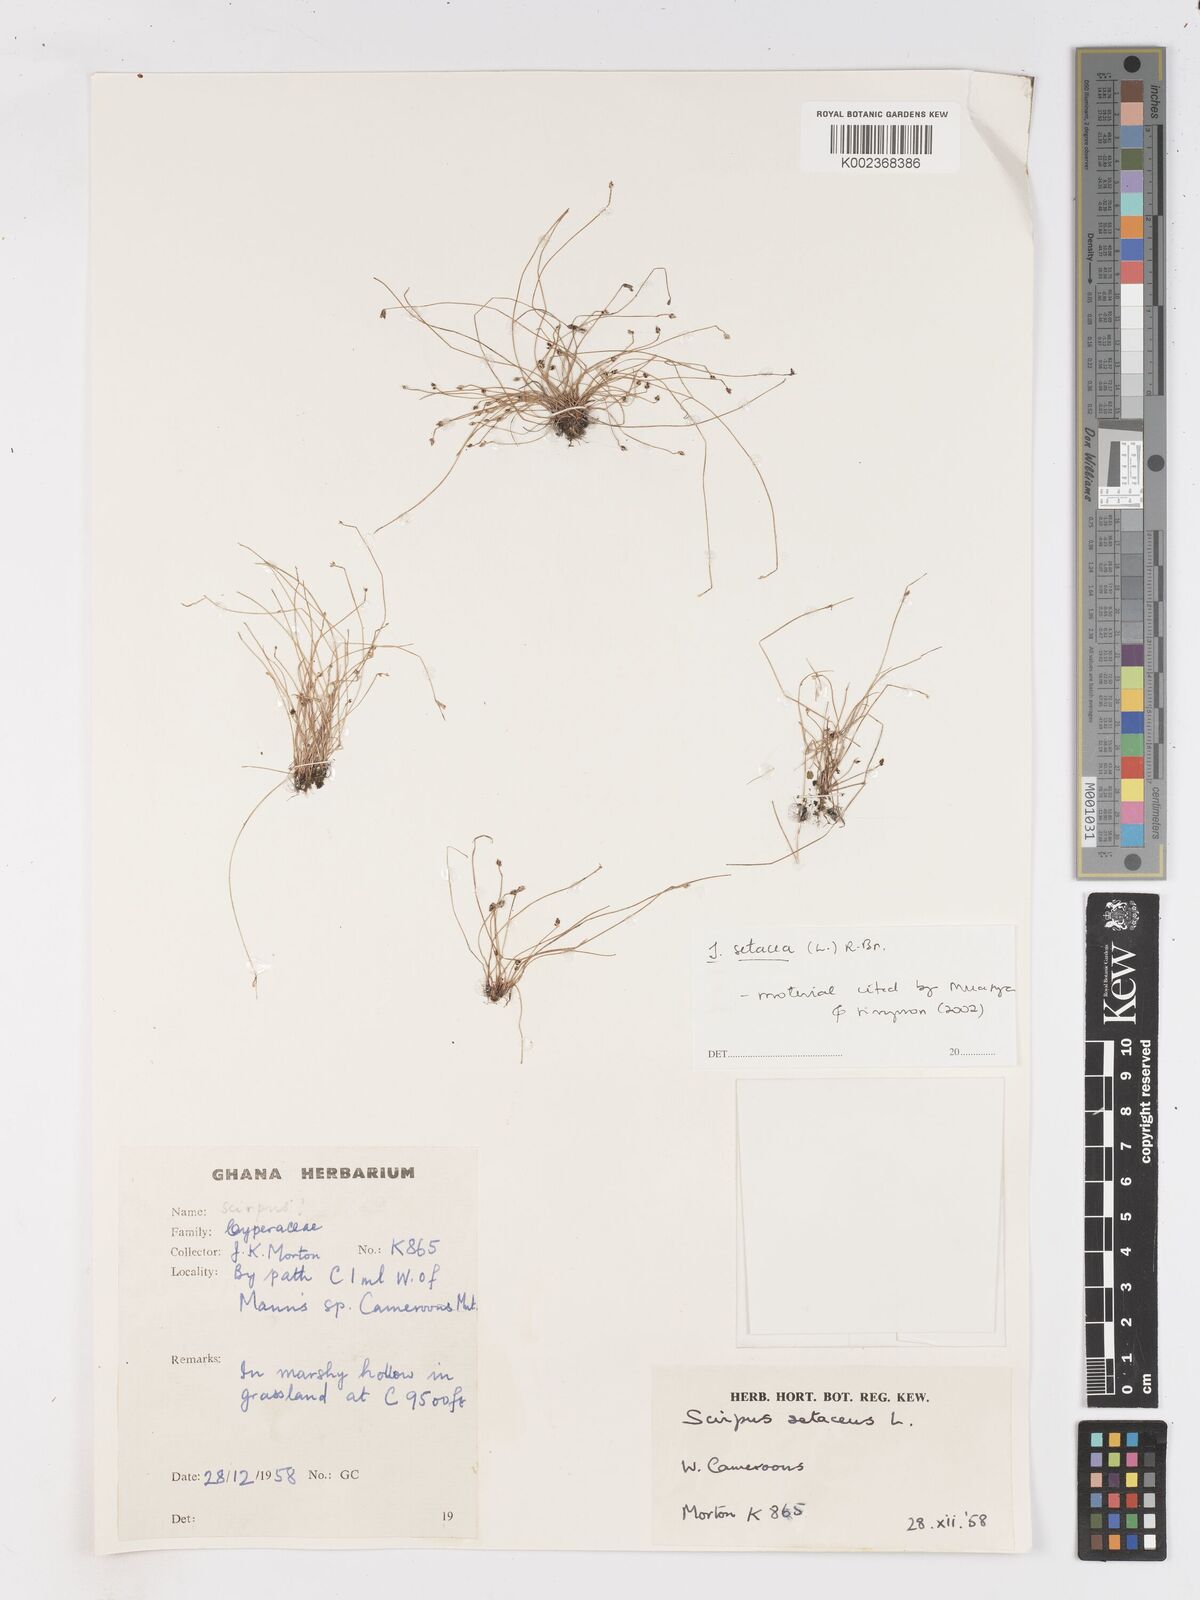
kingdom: Plantae
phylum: Tracheophyta
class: Liliopsida
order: Poales
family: Cyperaceae
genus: Isolepis
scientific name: Isolepis setacea
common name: Bristle club-rush
